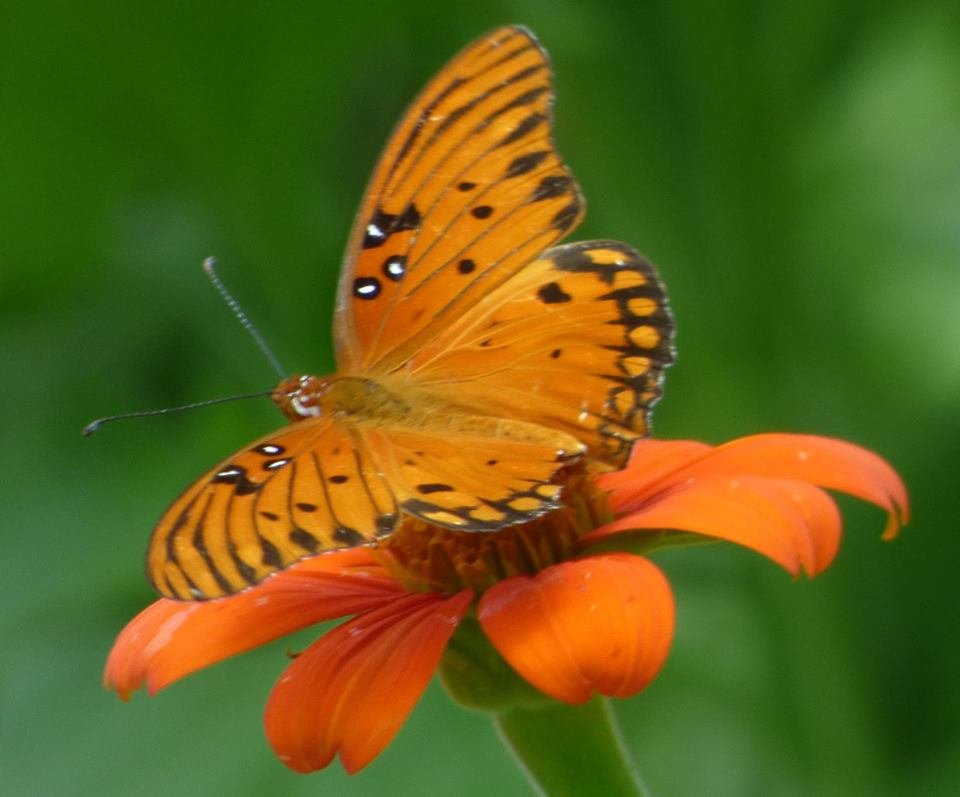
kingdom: Animalia
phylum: Arthropoda
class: Insecta
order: Lepidoptera
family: Nymphalidae
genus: Dione
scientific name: Dione vanillae
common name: Gulf Fritillary
